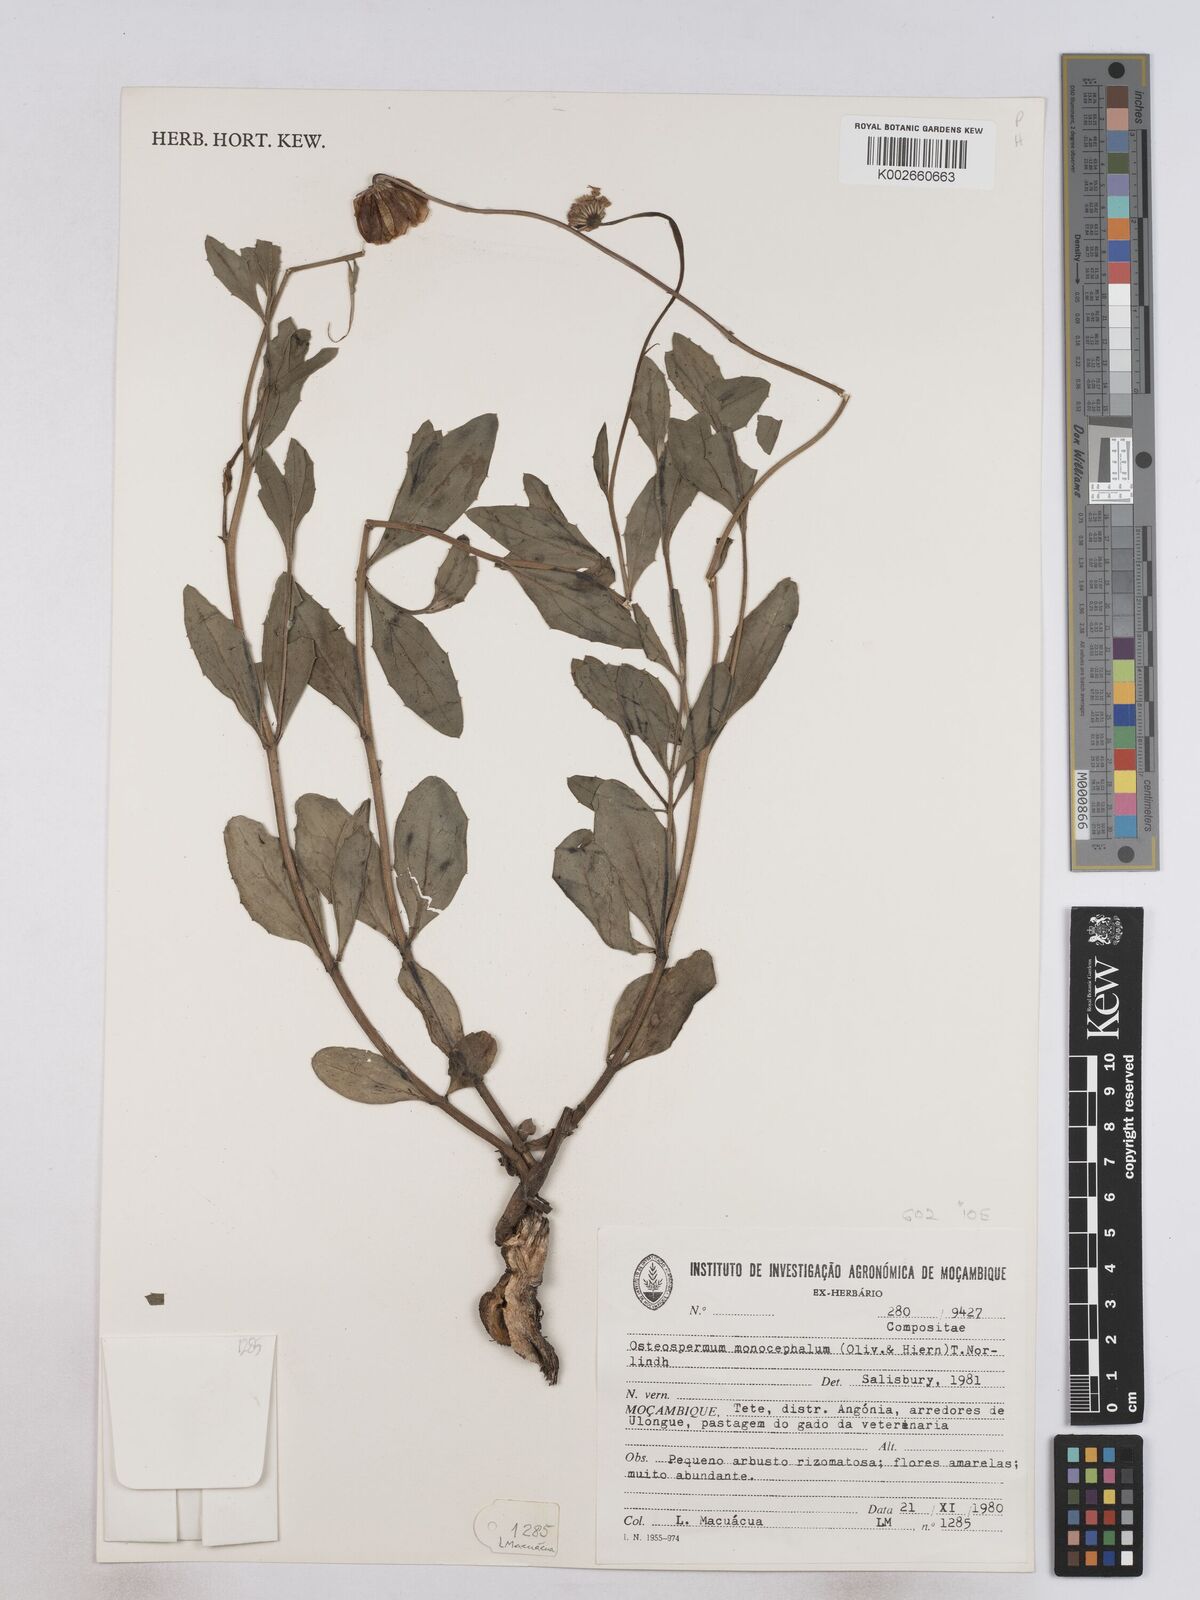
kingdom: Plantae
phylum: Tracheophyta
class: Magnoliopsida
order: Asterales
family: Asteraceae
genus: Osteospermum
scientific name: Osteospermum monocephalum
